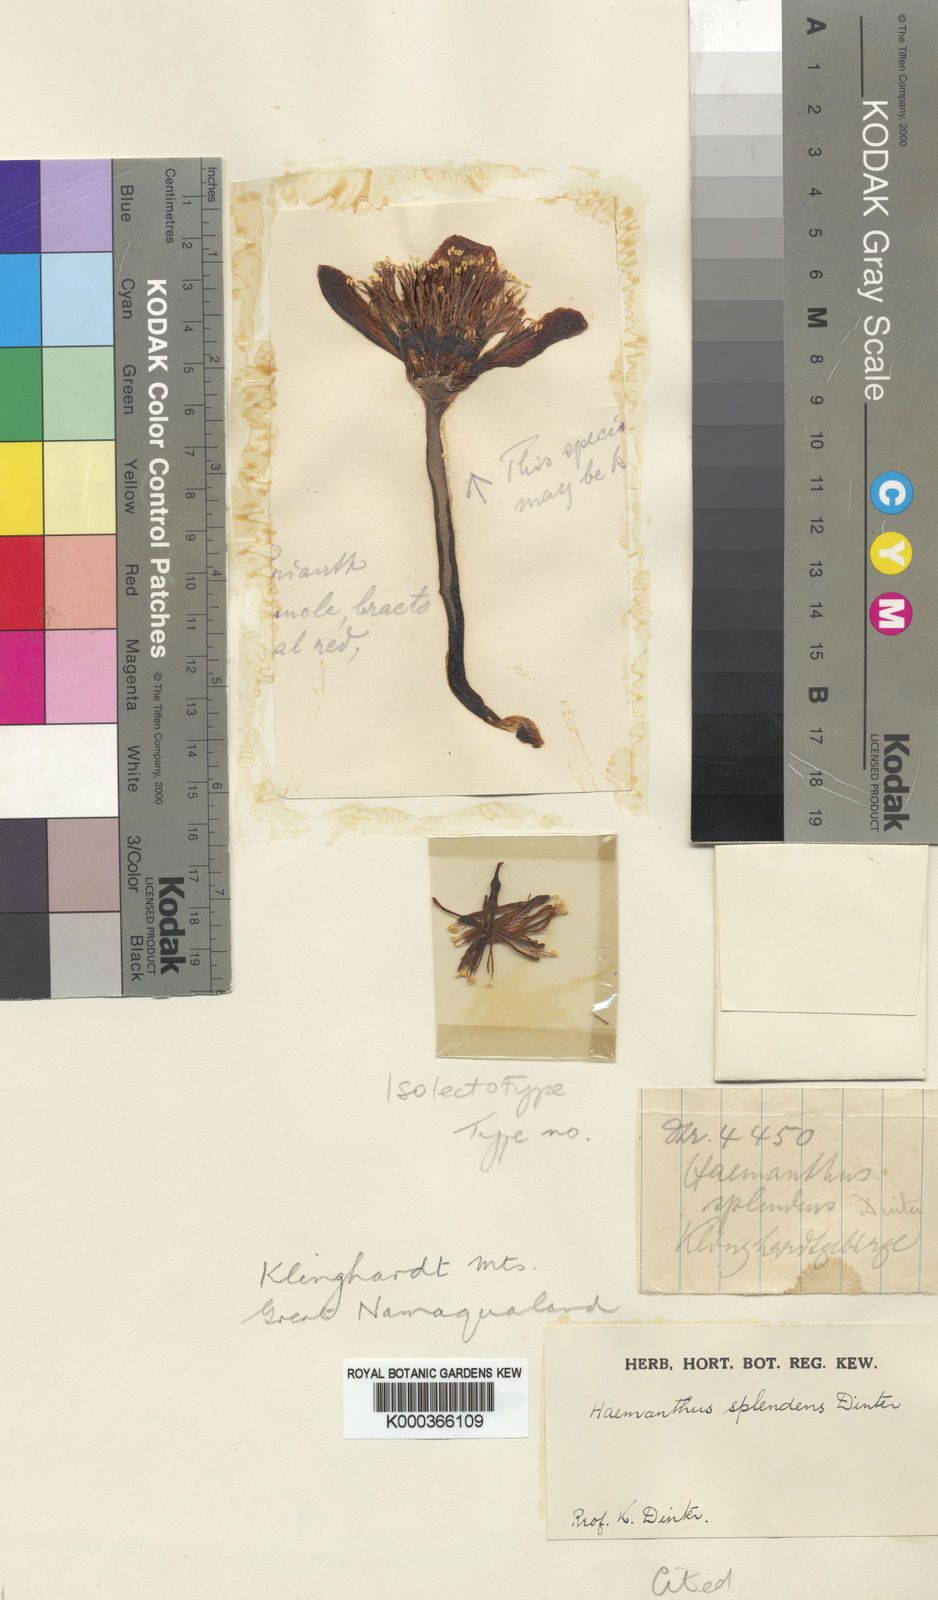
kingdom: Plantae
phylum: Tracheophyta
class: Liliopsida
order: Asparagales
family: Amaryllidaceae
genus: Haemanthus
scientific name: Haemanthus coccineus
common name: Cape-tulip
